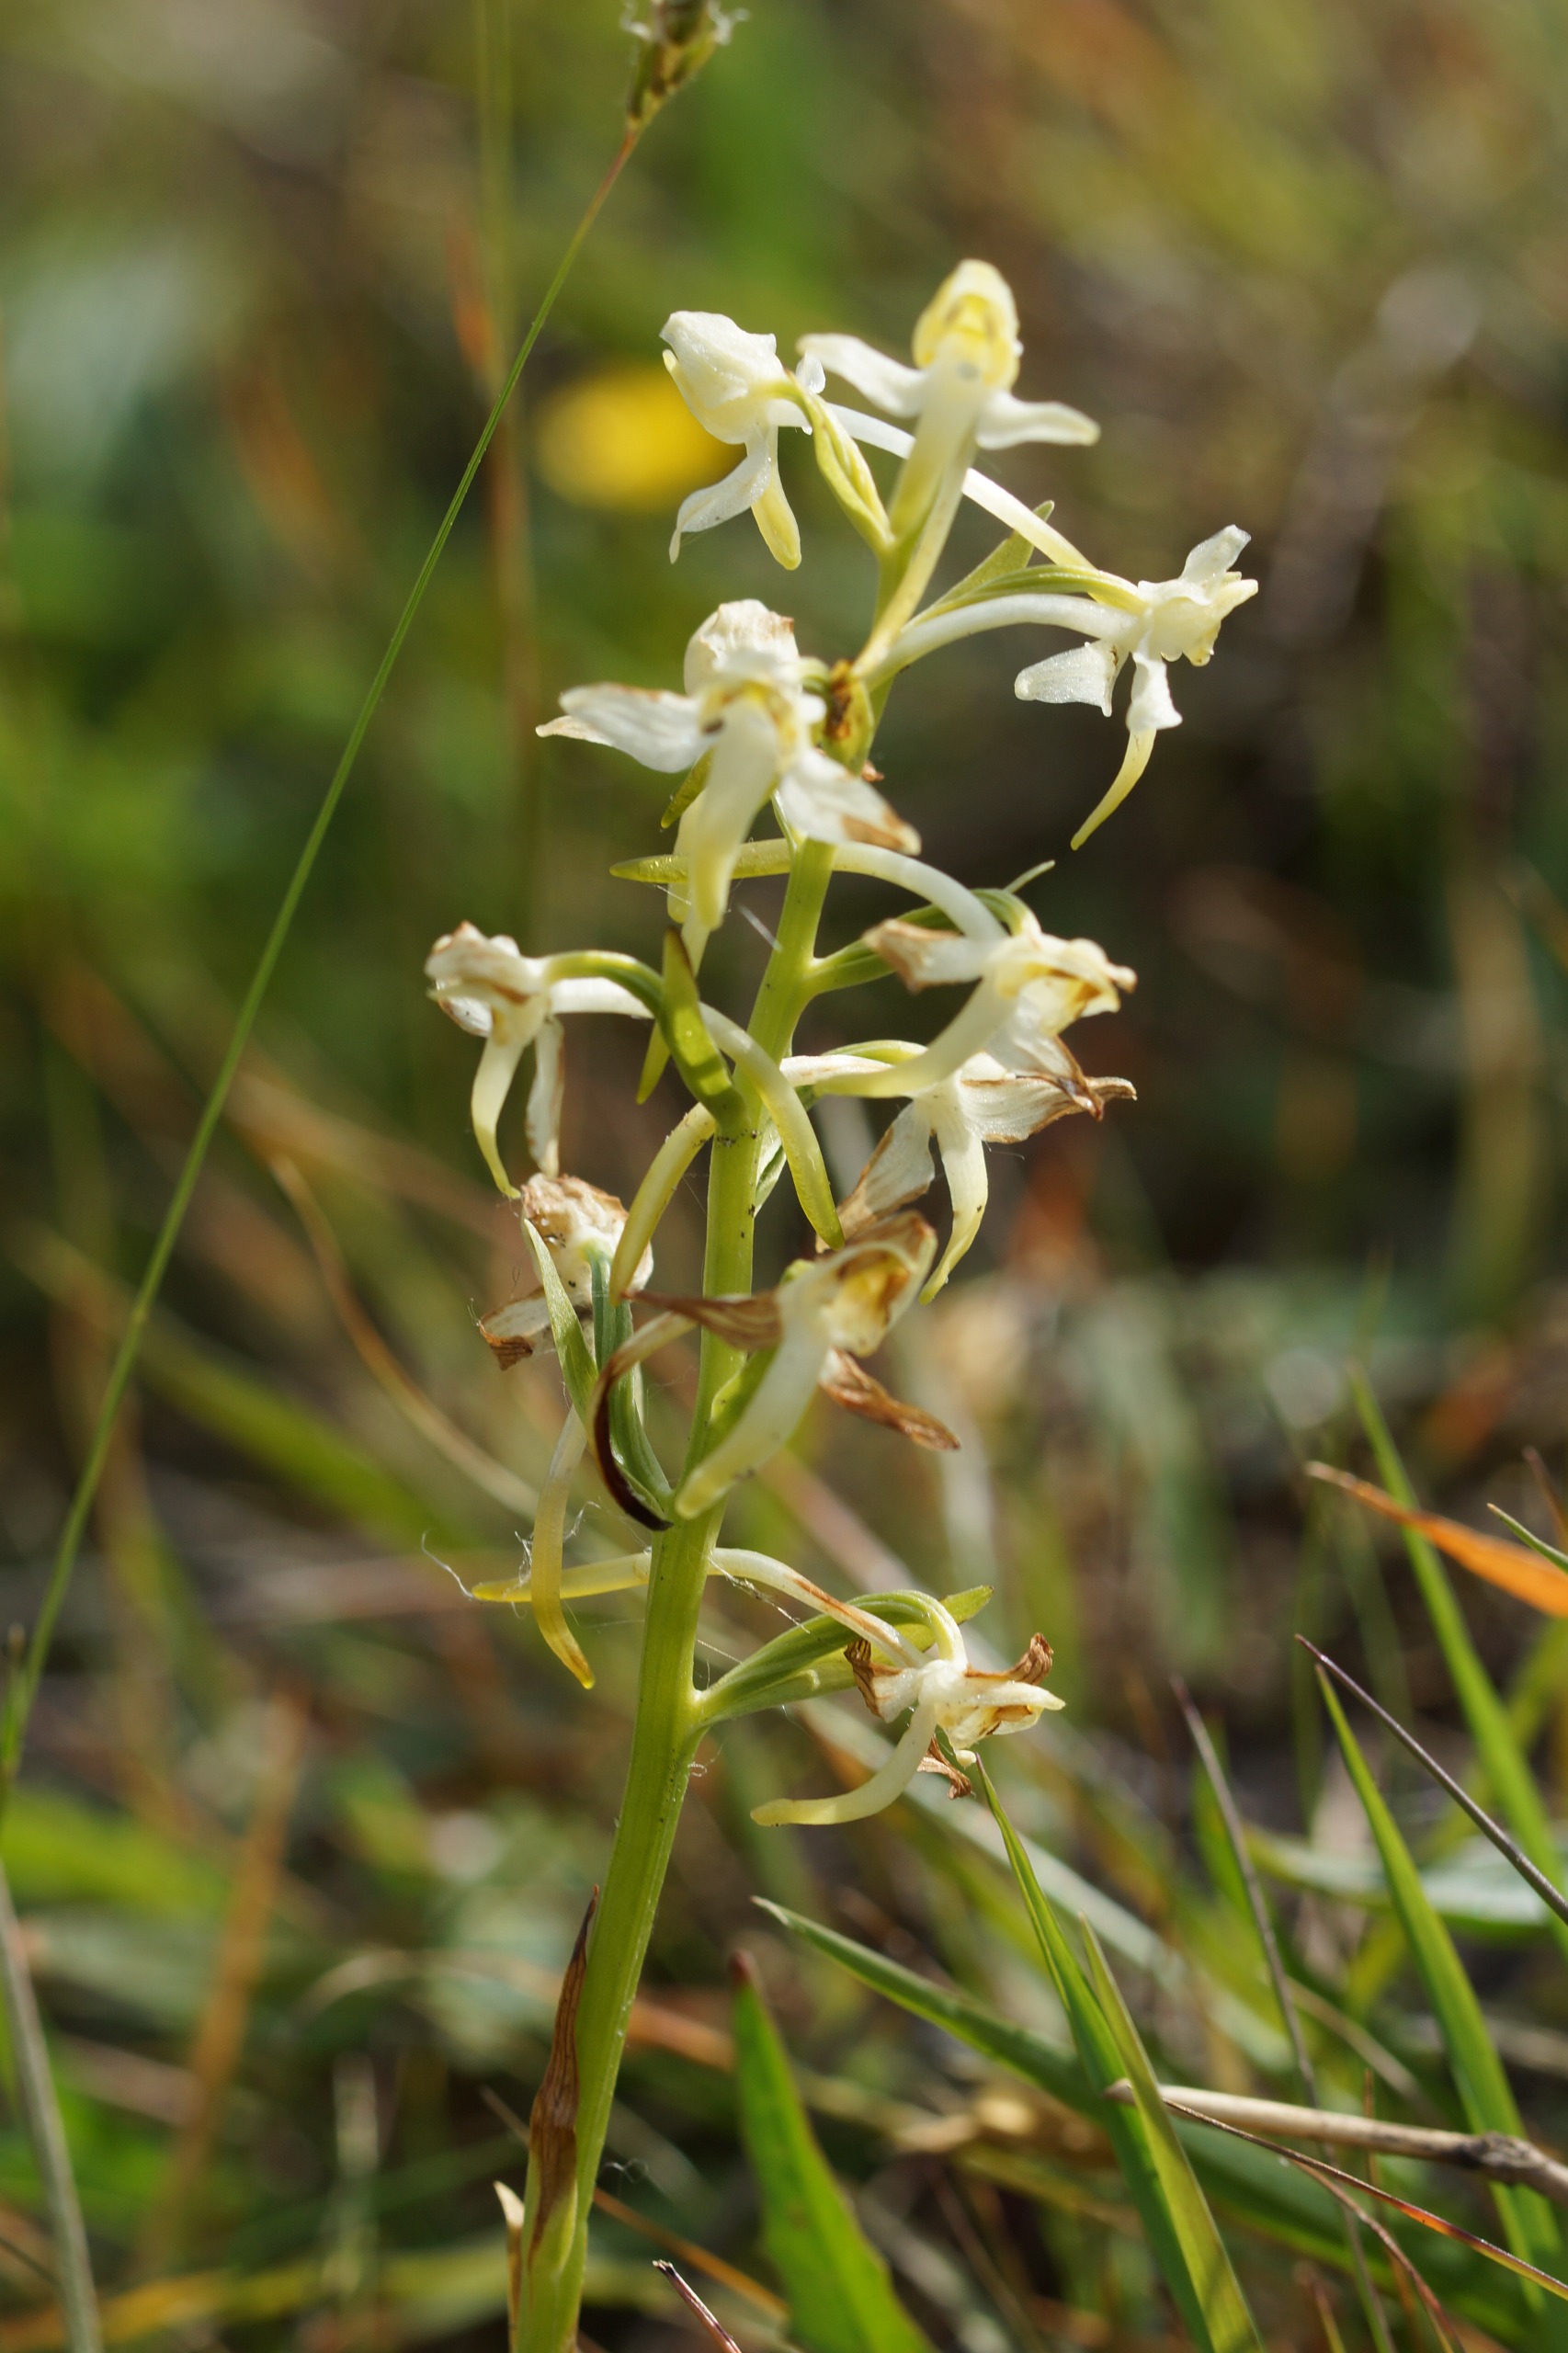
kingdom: Plantae
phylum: Tracheophyta
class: Liliopsida
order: Asparagales
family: Orchidaceae
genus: Platanthera
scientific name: Platanthera chlorantha
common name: Skov-gøgelilje
